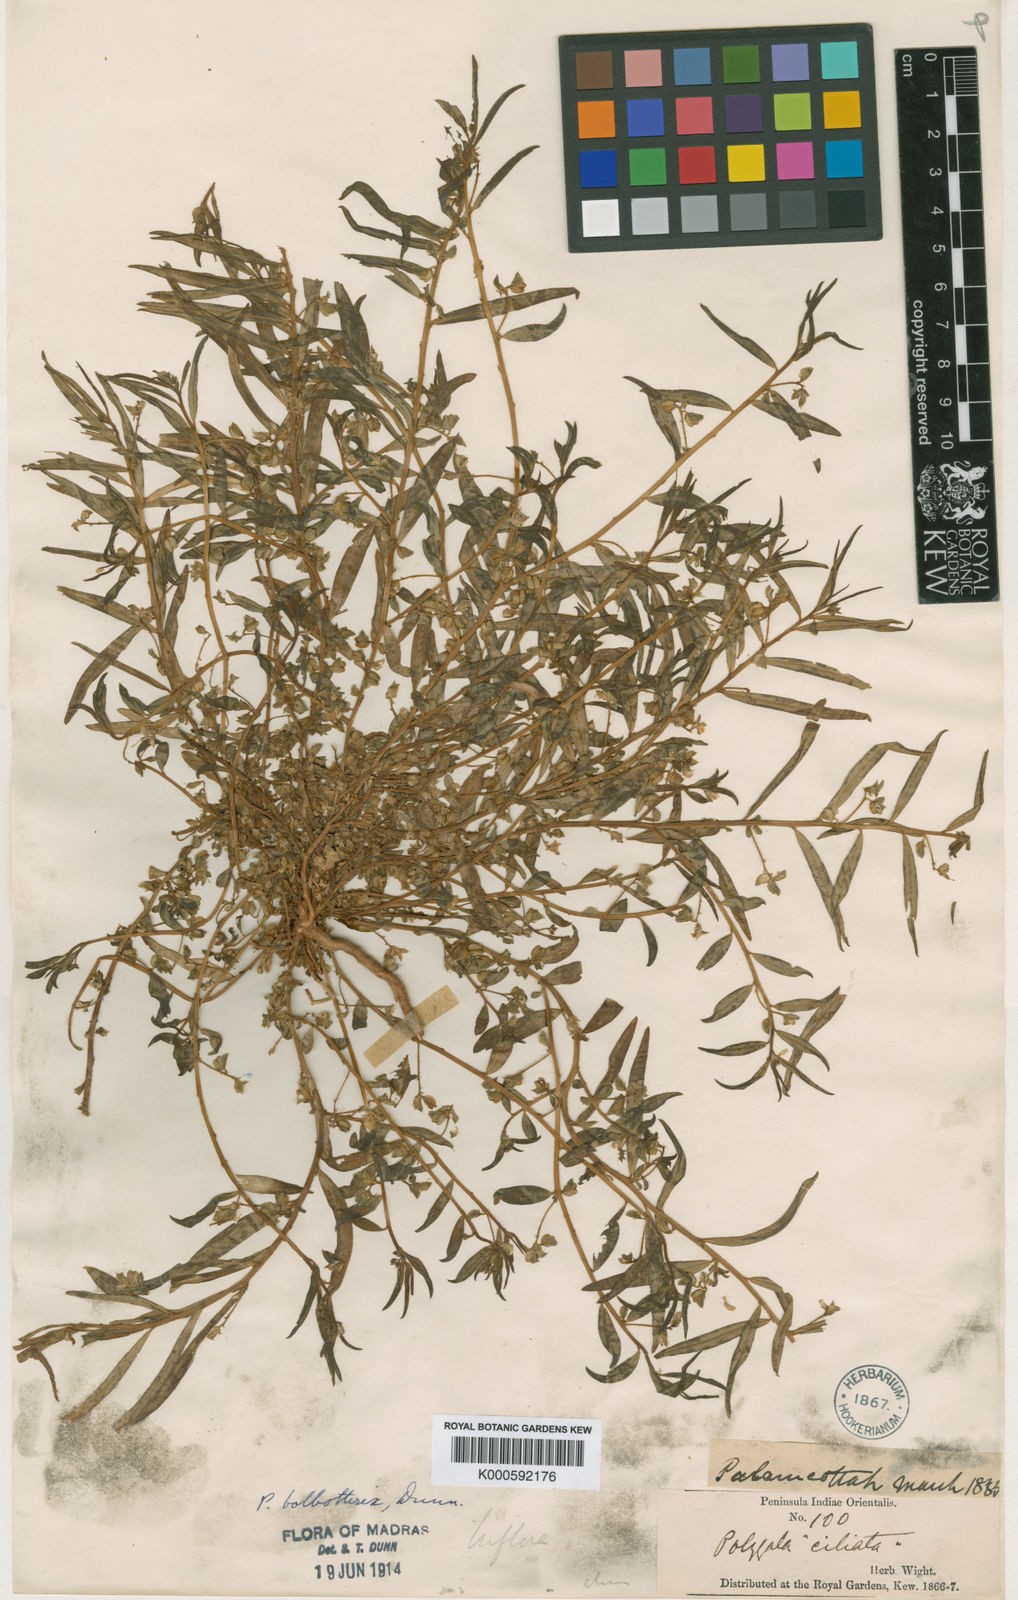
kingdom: Plantae
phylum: Tracheophyta
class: Magnoliopsida
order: Fabales
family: Polygalaceae
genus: Polygala
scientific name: Polygala bolbothrix
